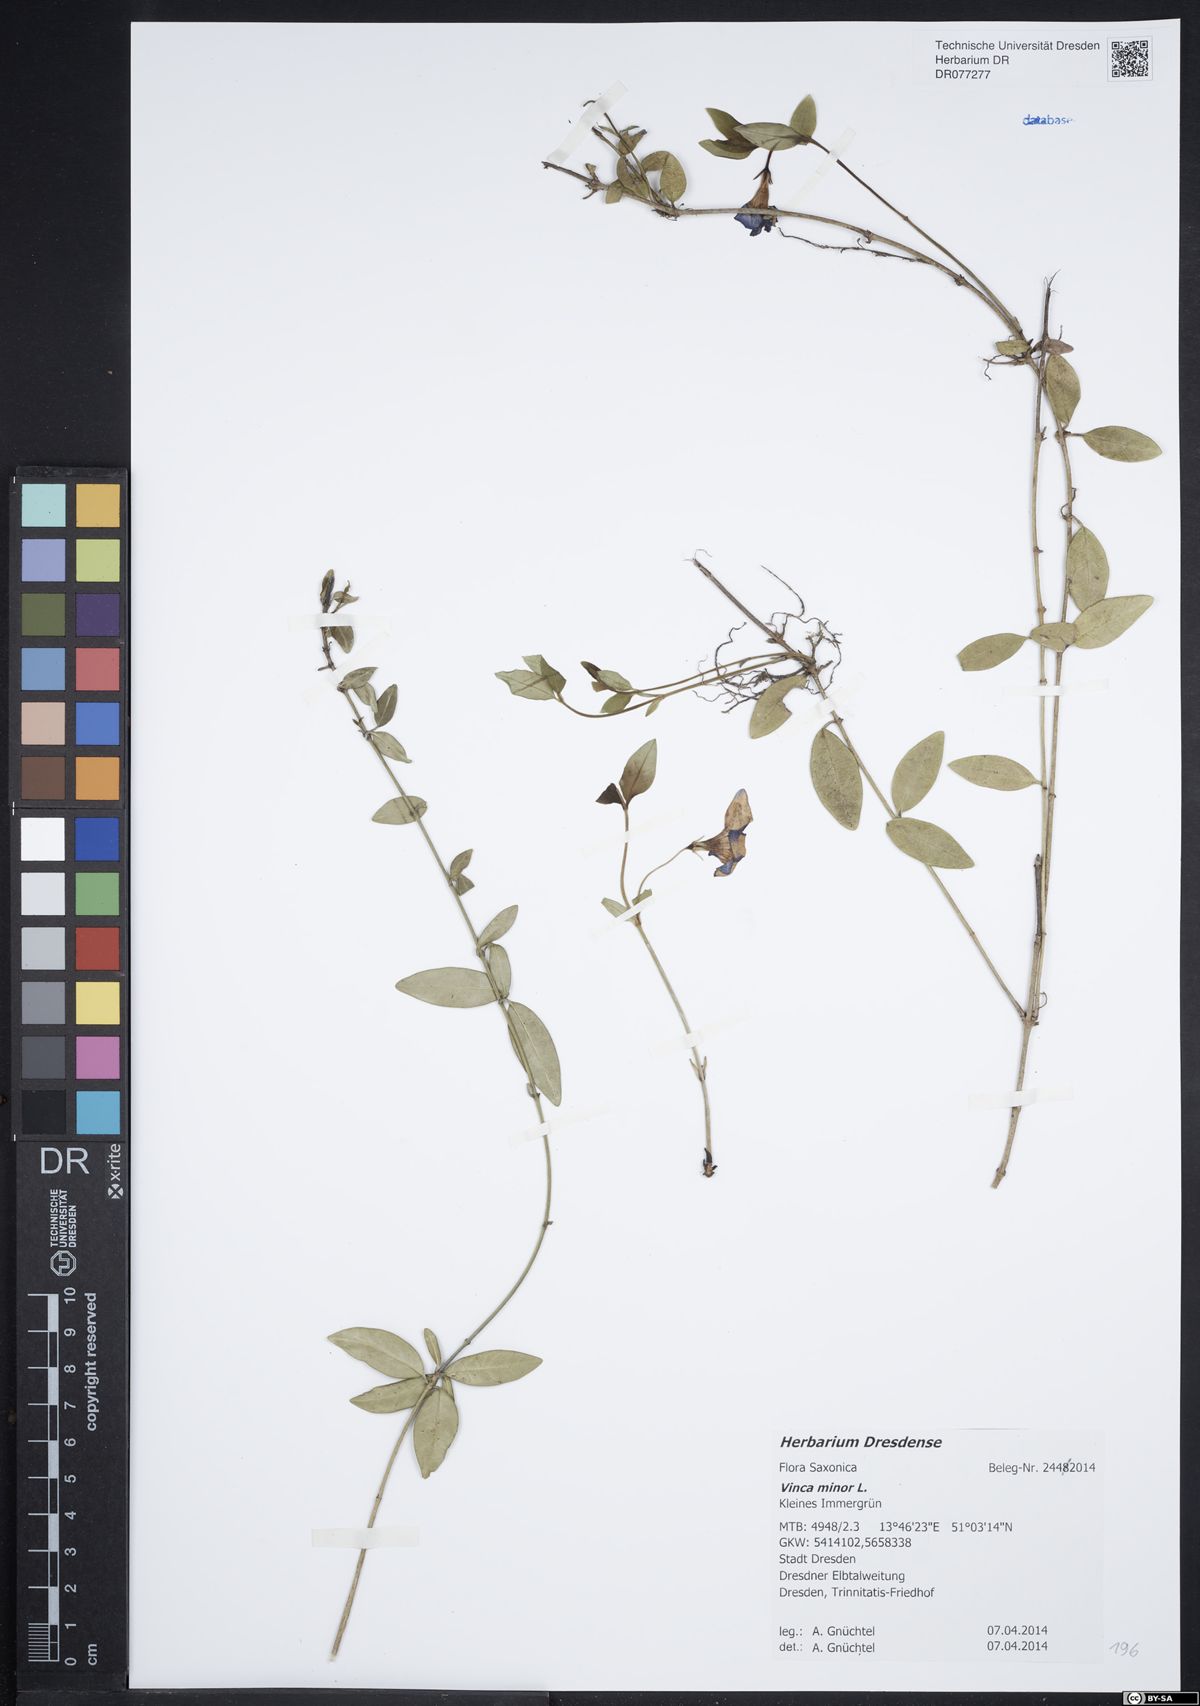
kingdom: Plantae
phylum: Tracheophyta
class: Magnoliopsida
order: Gentianales
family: Apocynaceae
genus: Vinca
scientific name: Vinca minor
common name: Lesser periwinkle
